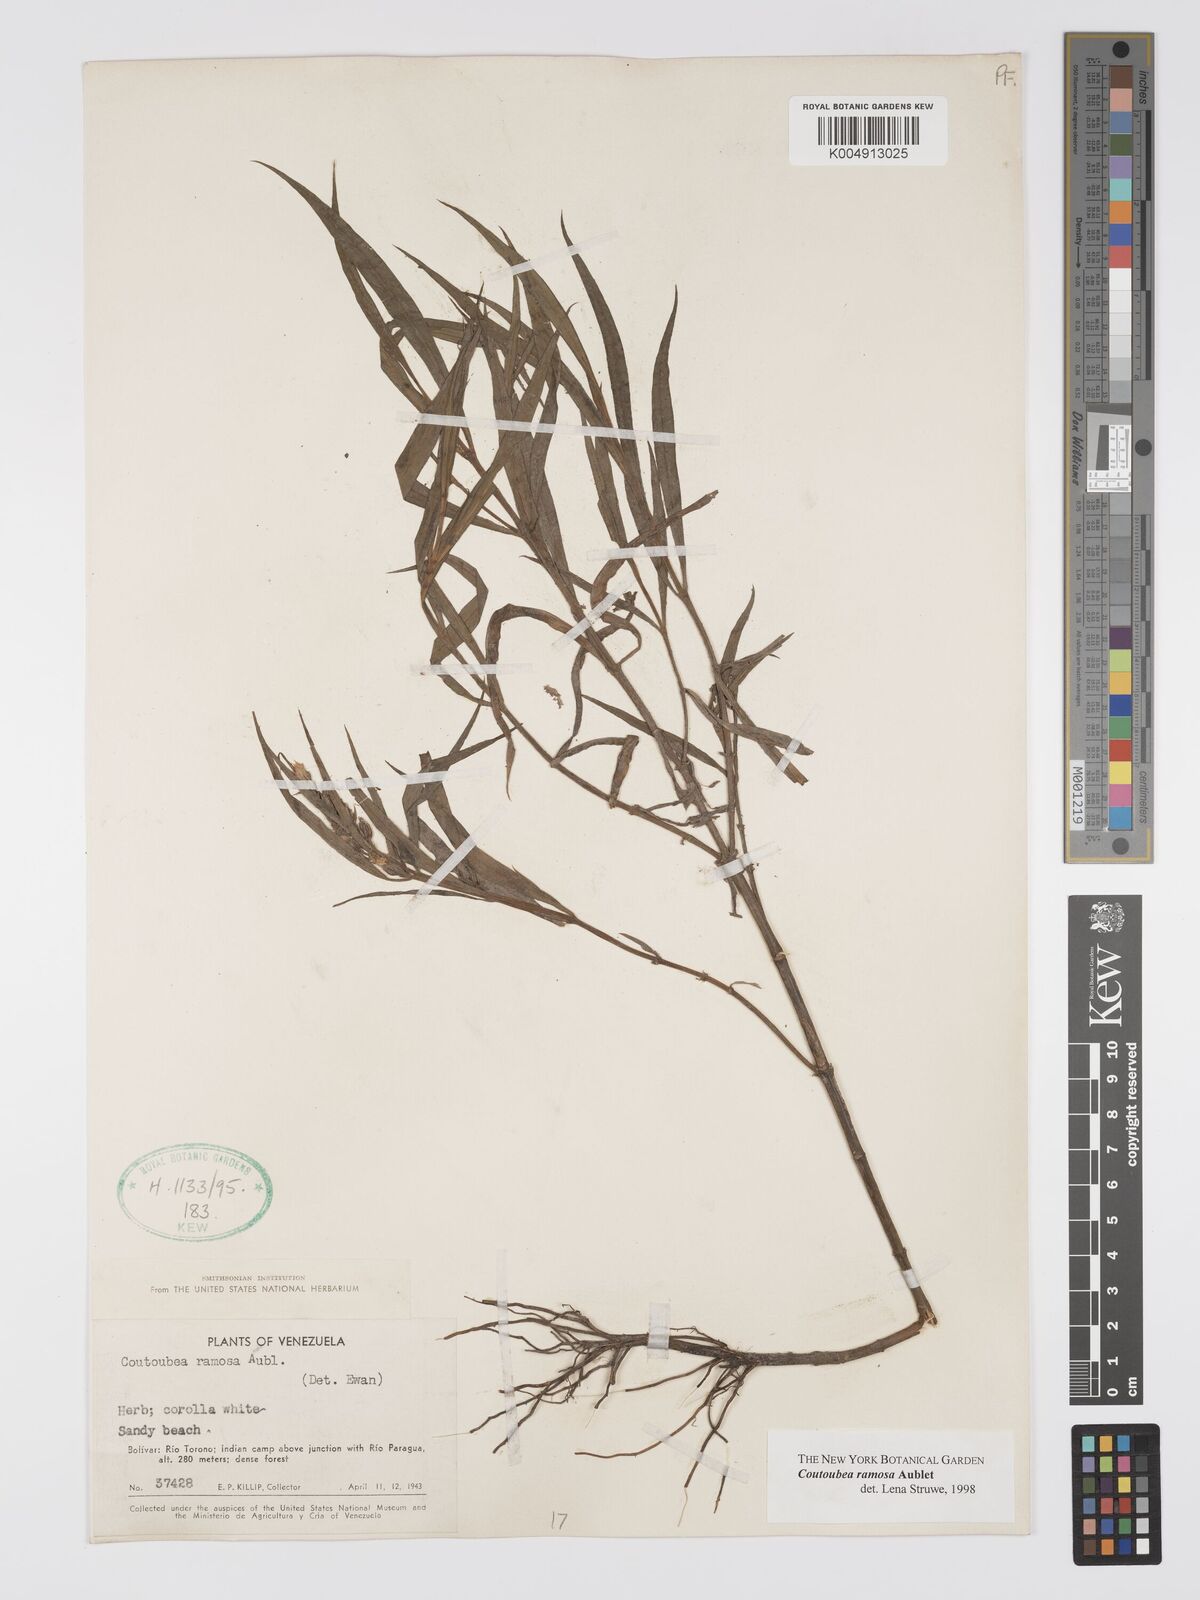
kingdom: Plantae
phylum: Tracheophyta
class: Magnoliopsida
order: Gentianales
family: Gentianaceae
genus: Coutoubea
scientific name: Coutoubea ramosa
